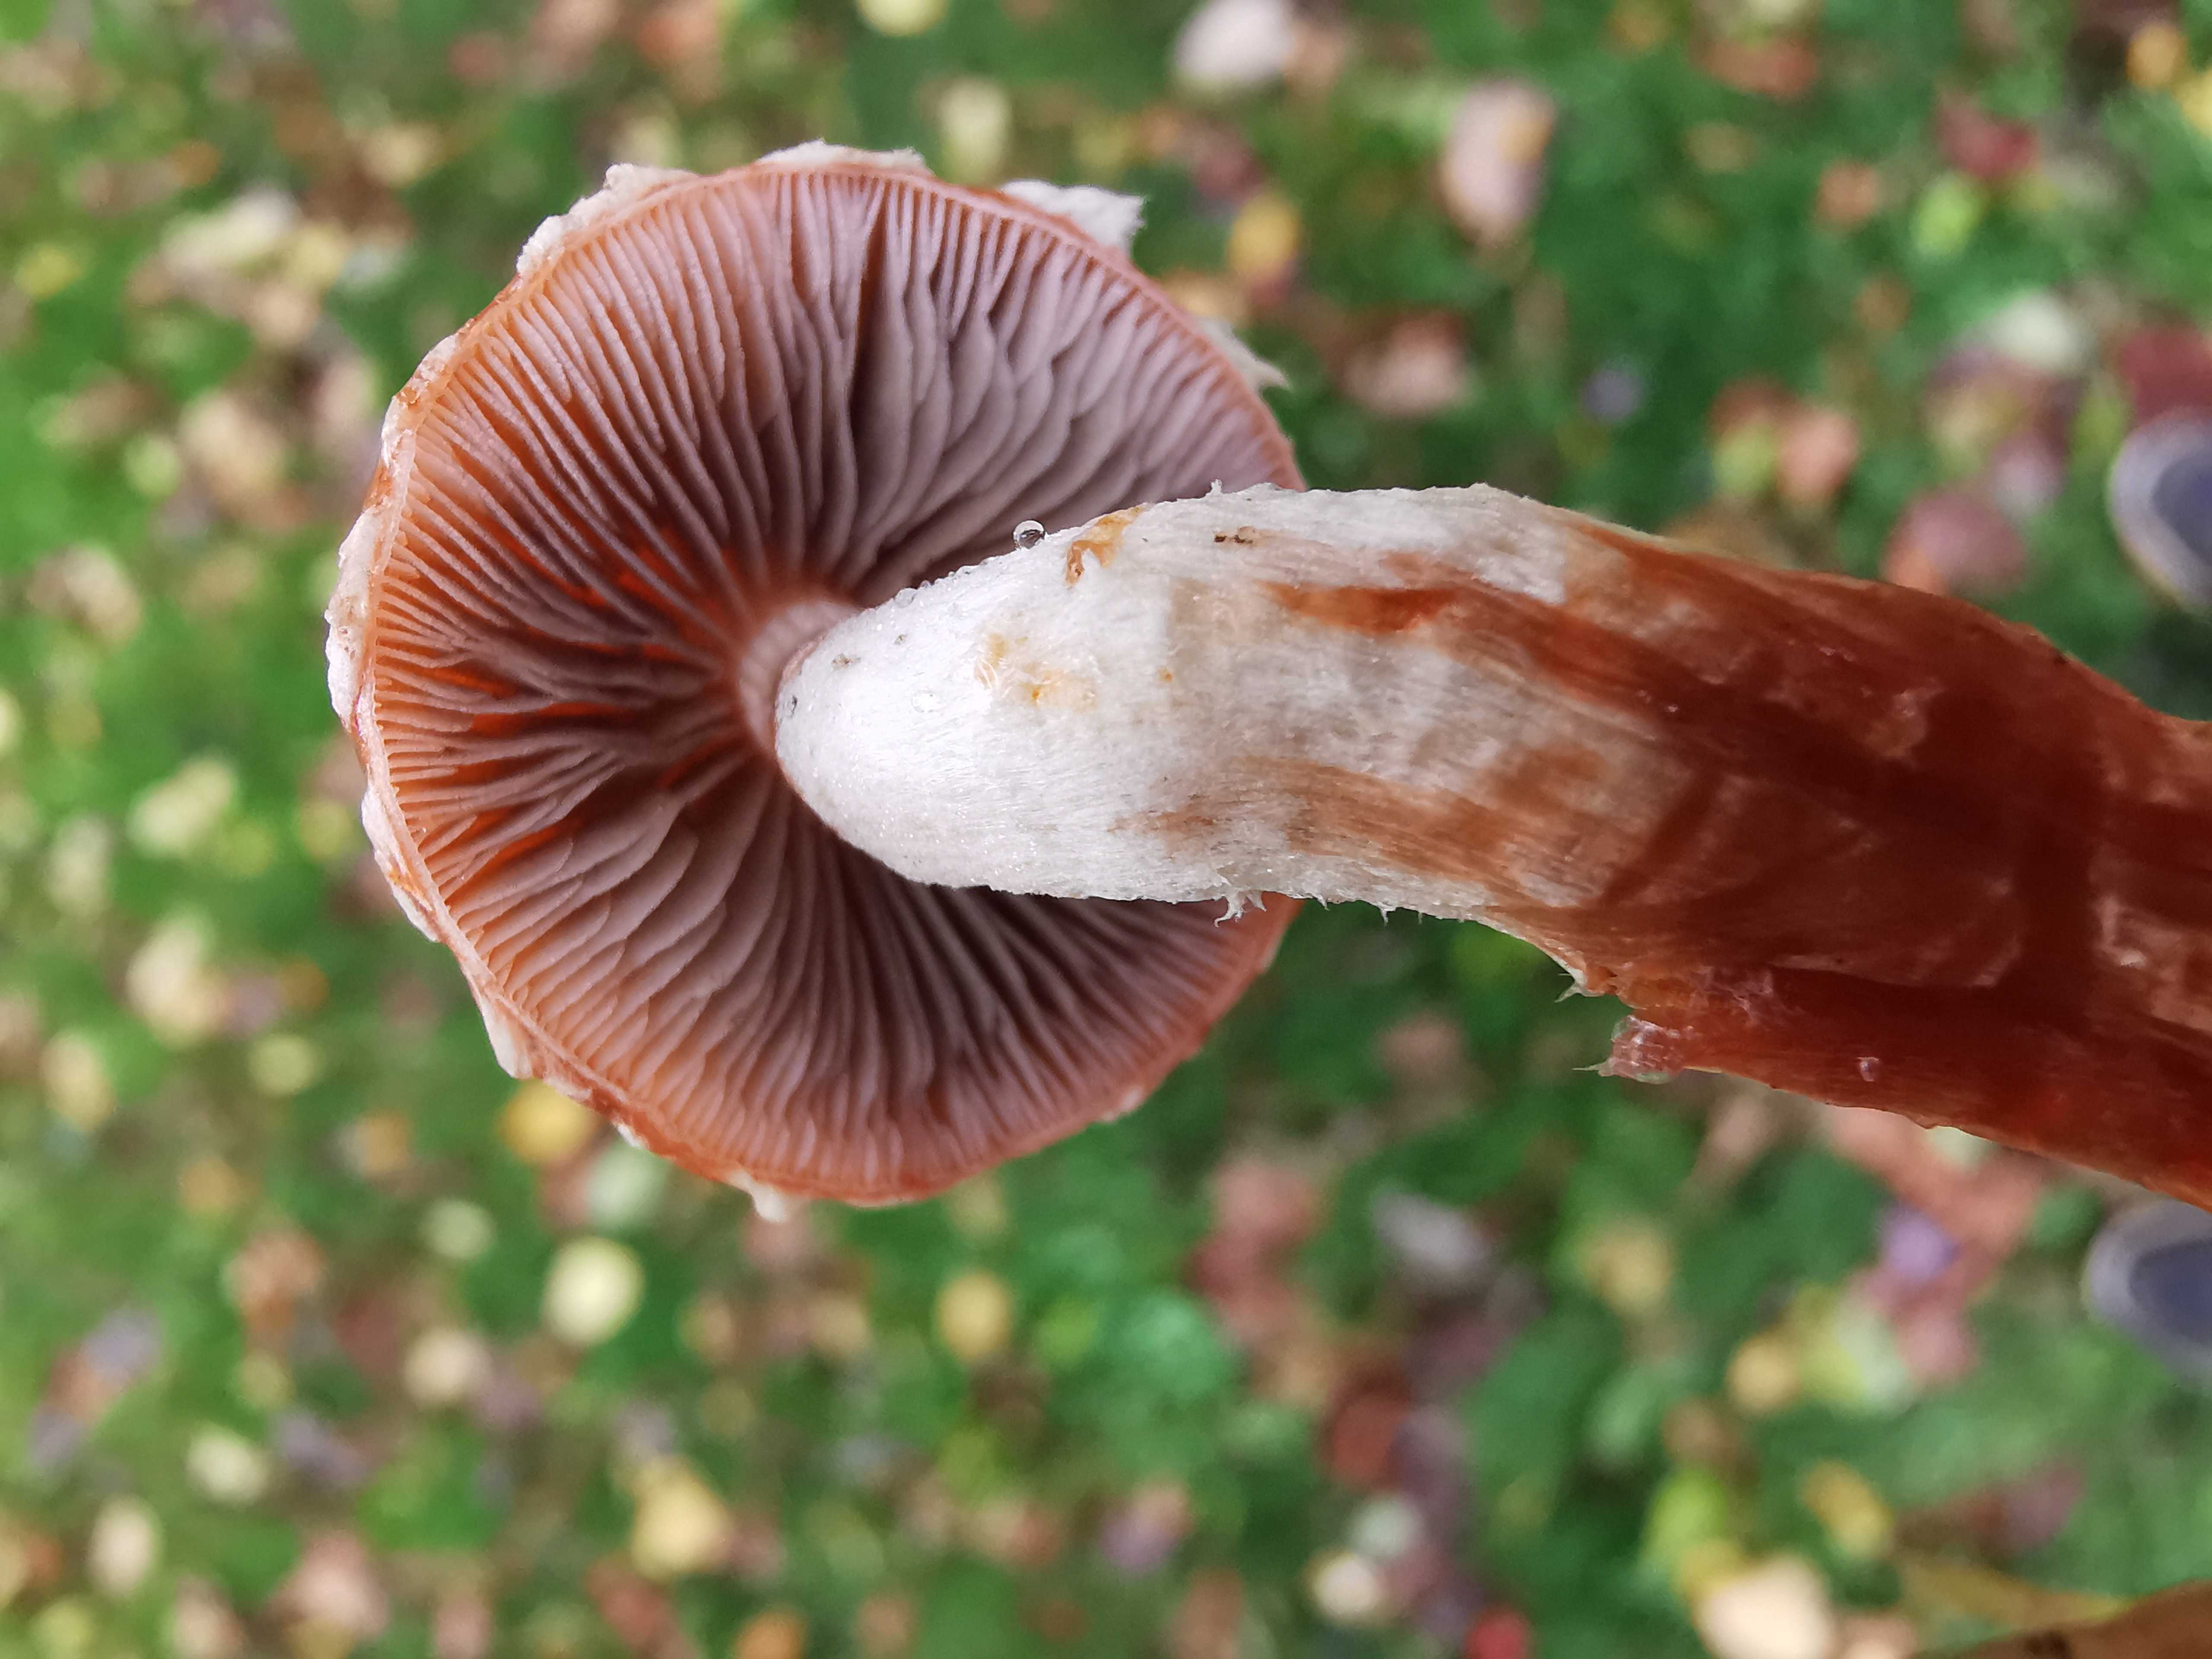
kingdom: Fungi
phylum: Basidiomycota
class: Agaricomycetes
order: Agaricales
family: Strophariaceae
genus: Leratiomyces
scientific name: Leratiomyces ceres
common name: orange bredblad
